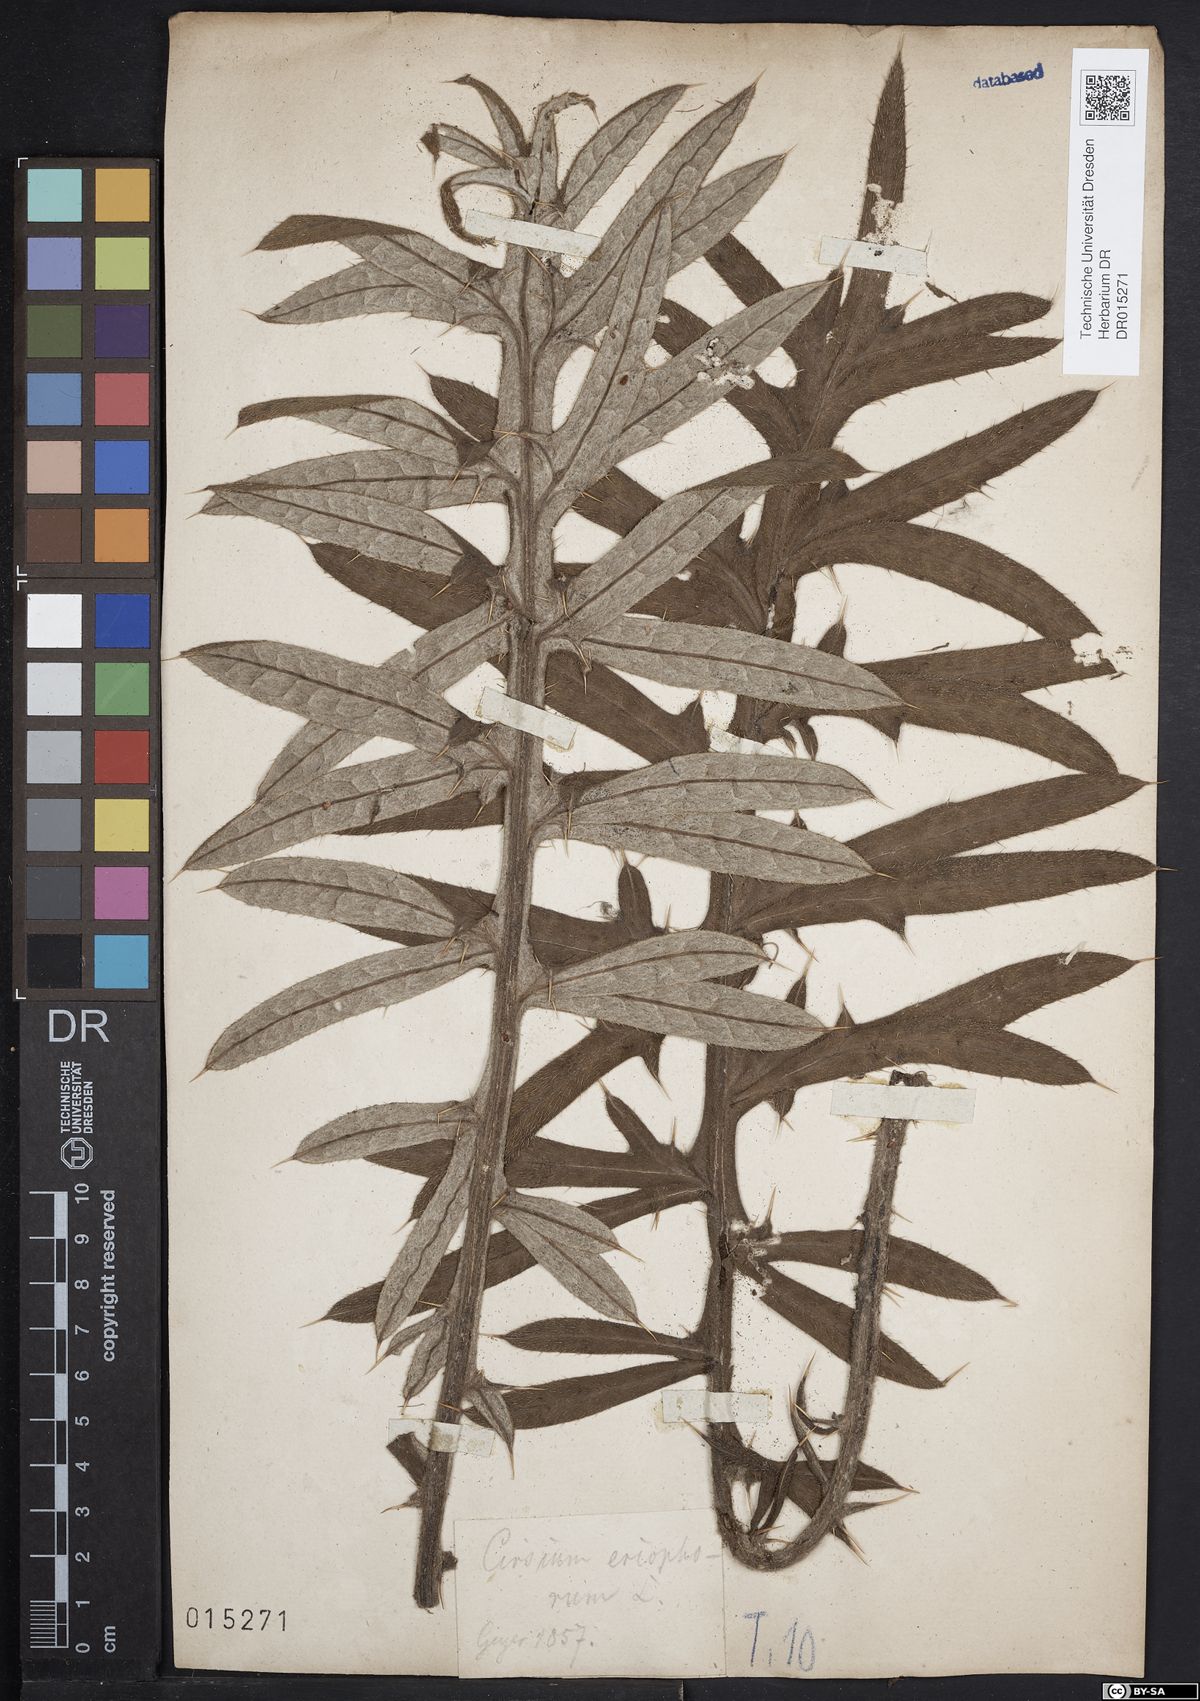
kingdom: Plantae
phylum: Tracheophyta
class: Magnoliopsida
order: Asterales
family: Asteraceae
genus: Lophiolepis
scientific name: Lophiolepis eriophora
